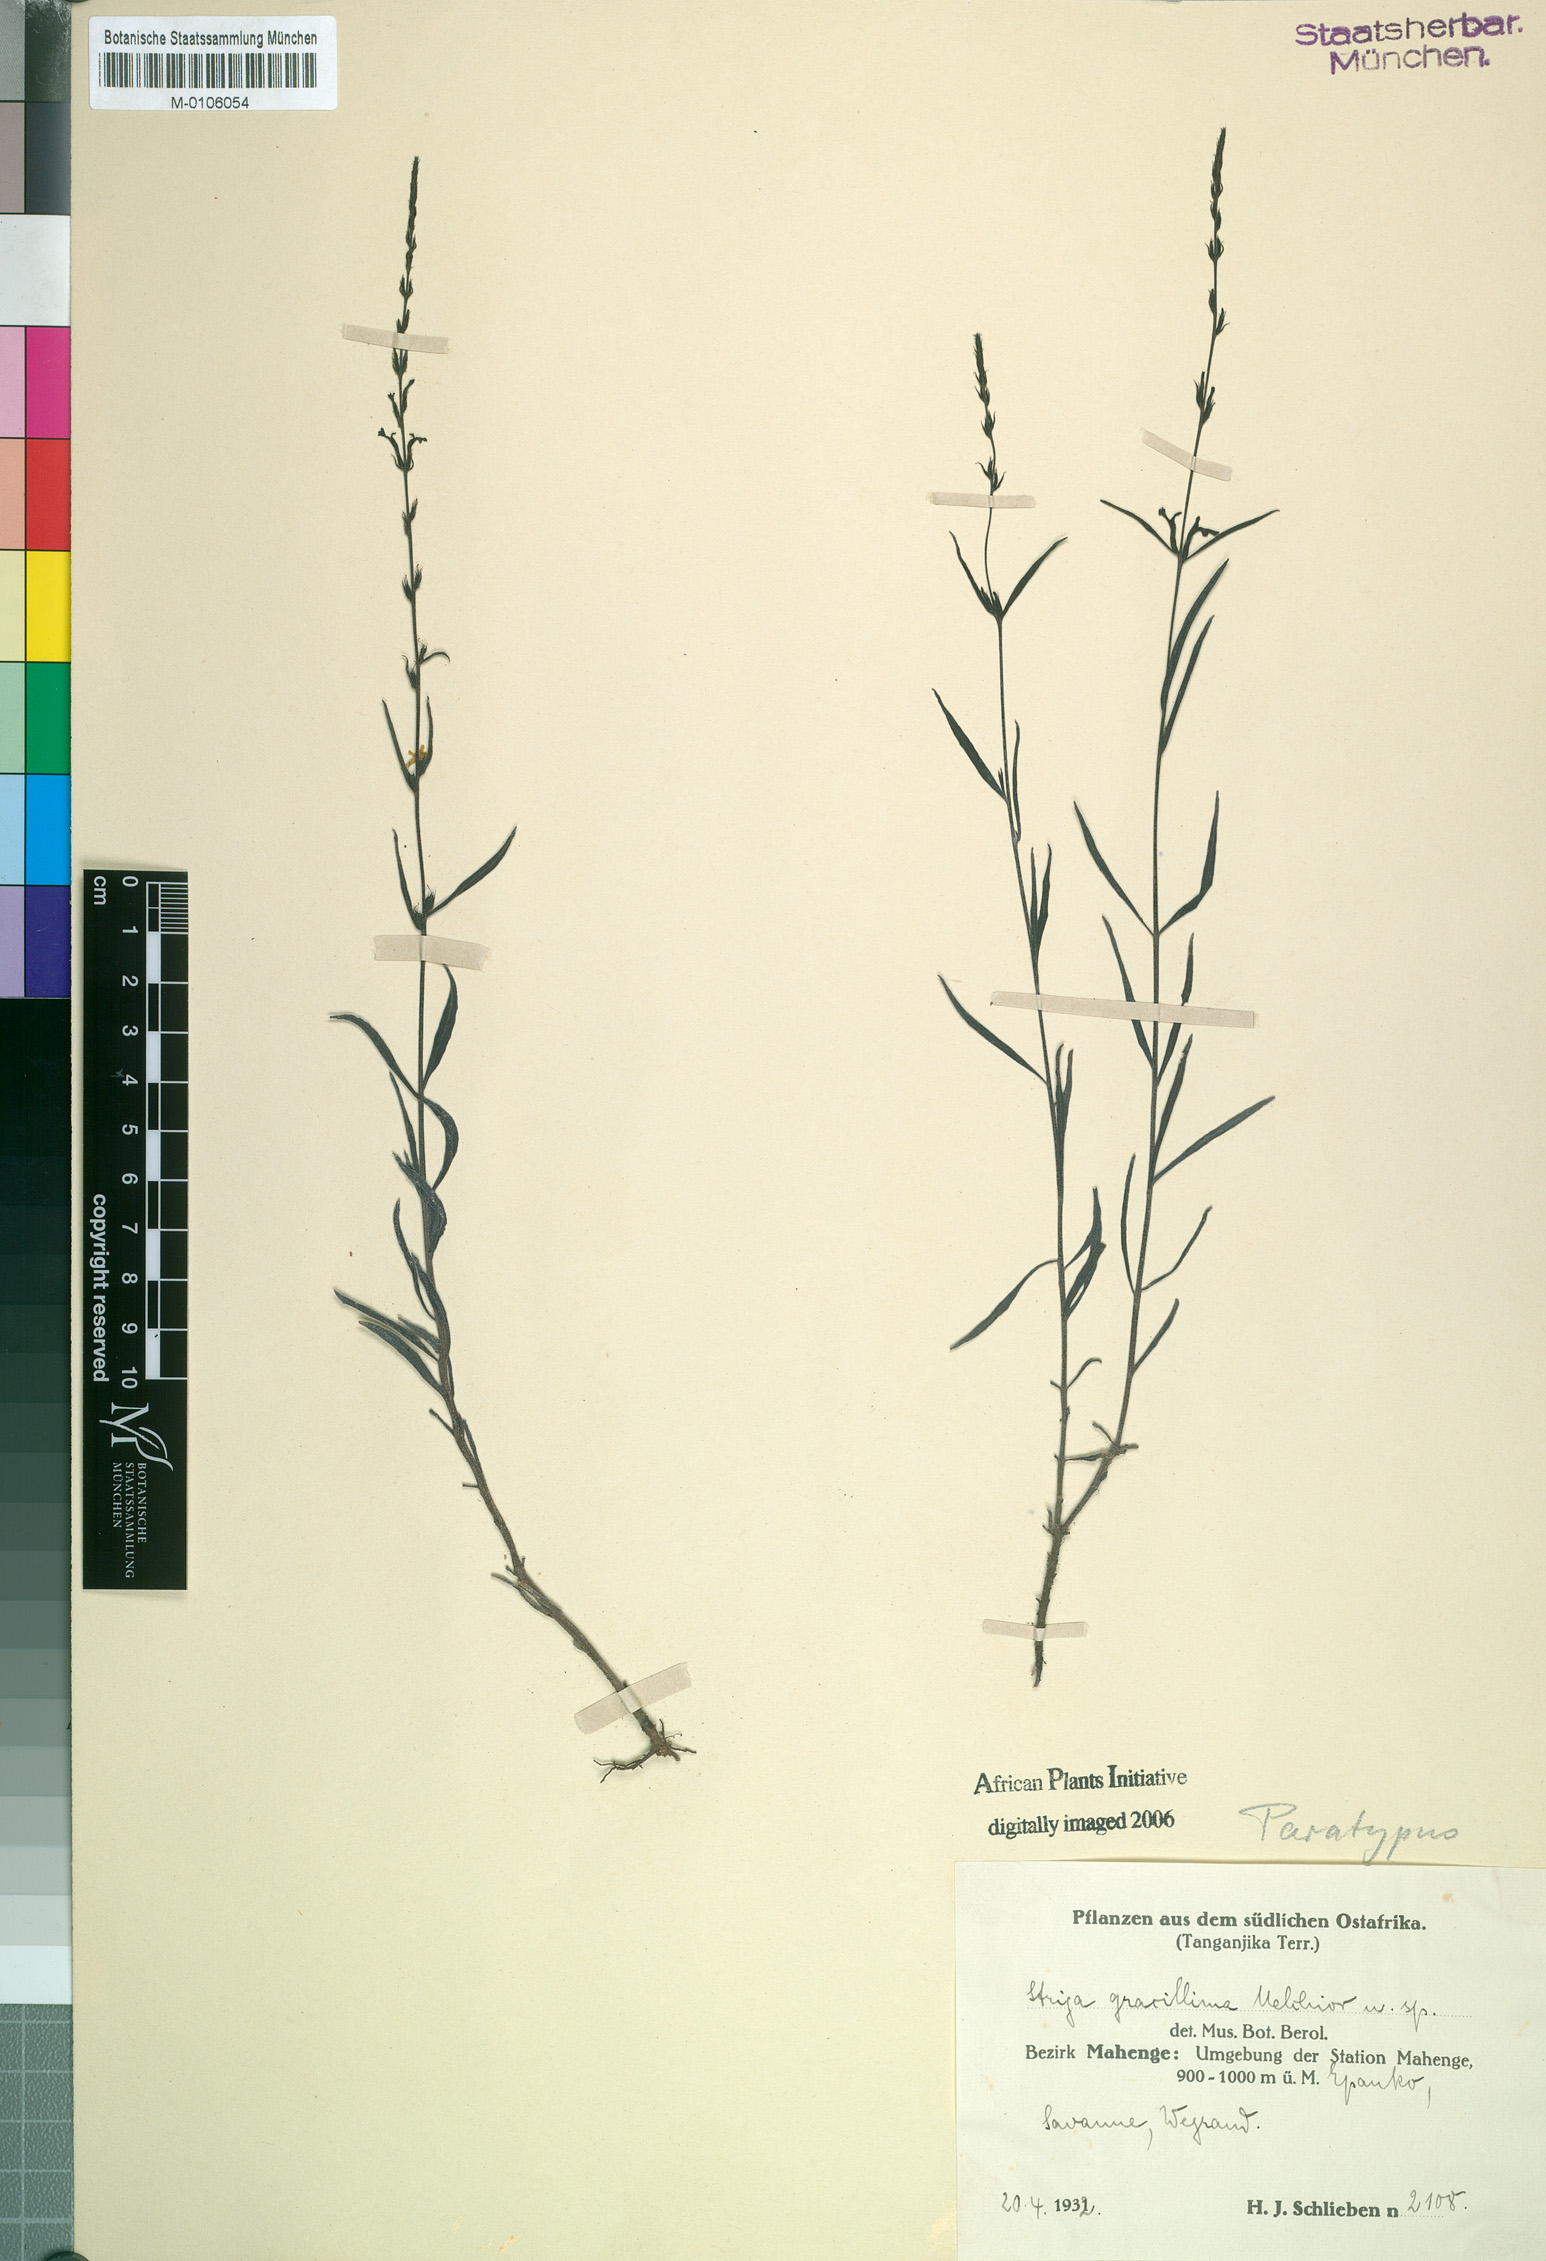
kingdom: Plantae
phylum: Tracheophyta
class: Magnoliopsida
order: Lamiales
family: Orobanchaceae
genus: Striga
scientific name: Striga gracillima
